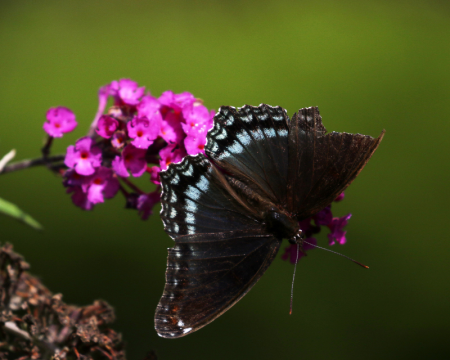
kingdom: Animalia
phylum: Arthropoda
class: Insecta
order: Lepidoptera
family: Nymphalidae
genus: Limenitis
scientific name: Limenitis arthemis
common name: Red-spotted Admiral
